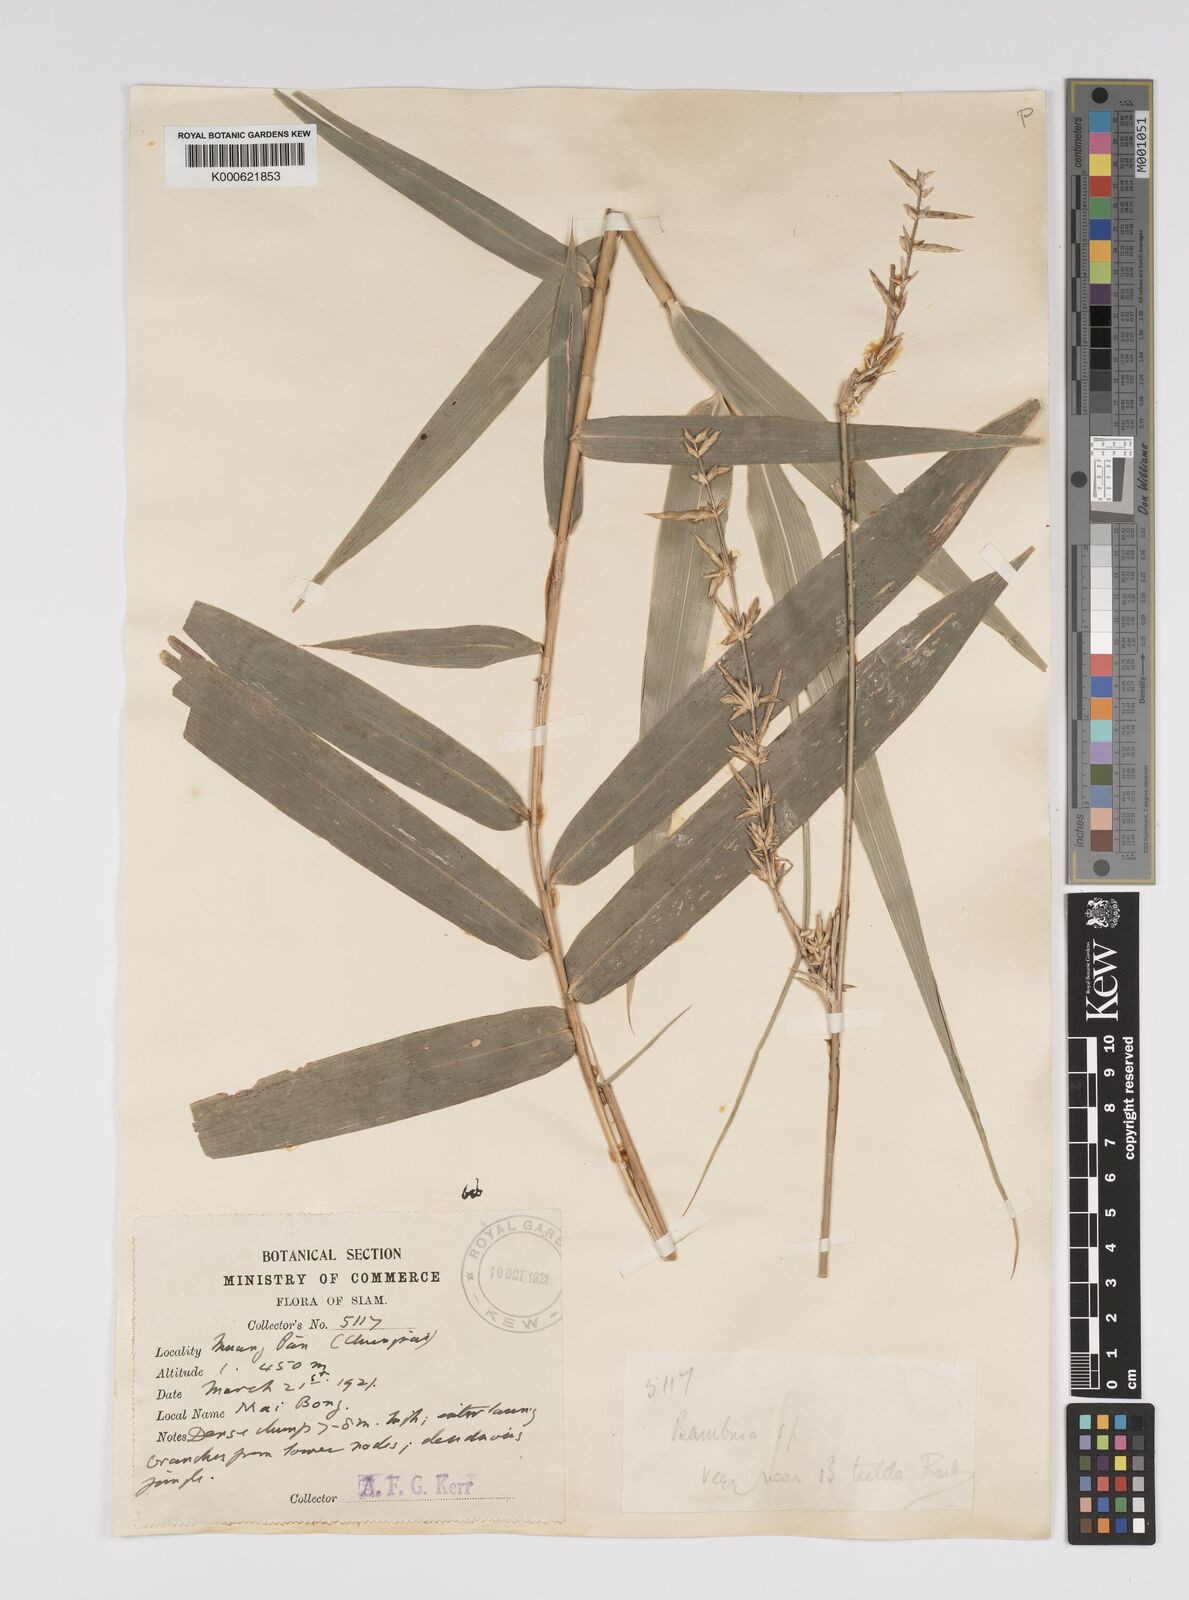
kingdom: Plantae
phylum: Tracheophyta
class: Liliopsida
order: Poales
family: Poaceae
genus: Bambusa
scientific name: Bambusa tuldoides
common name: Verdant bamboo
